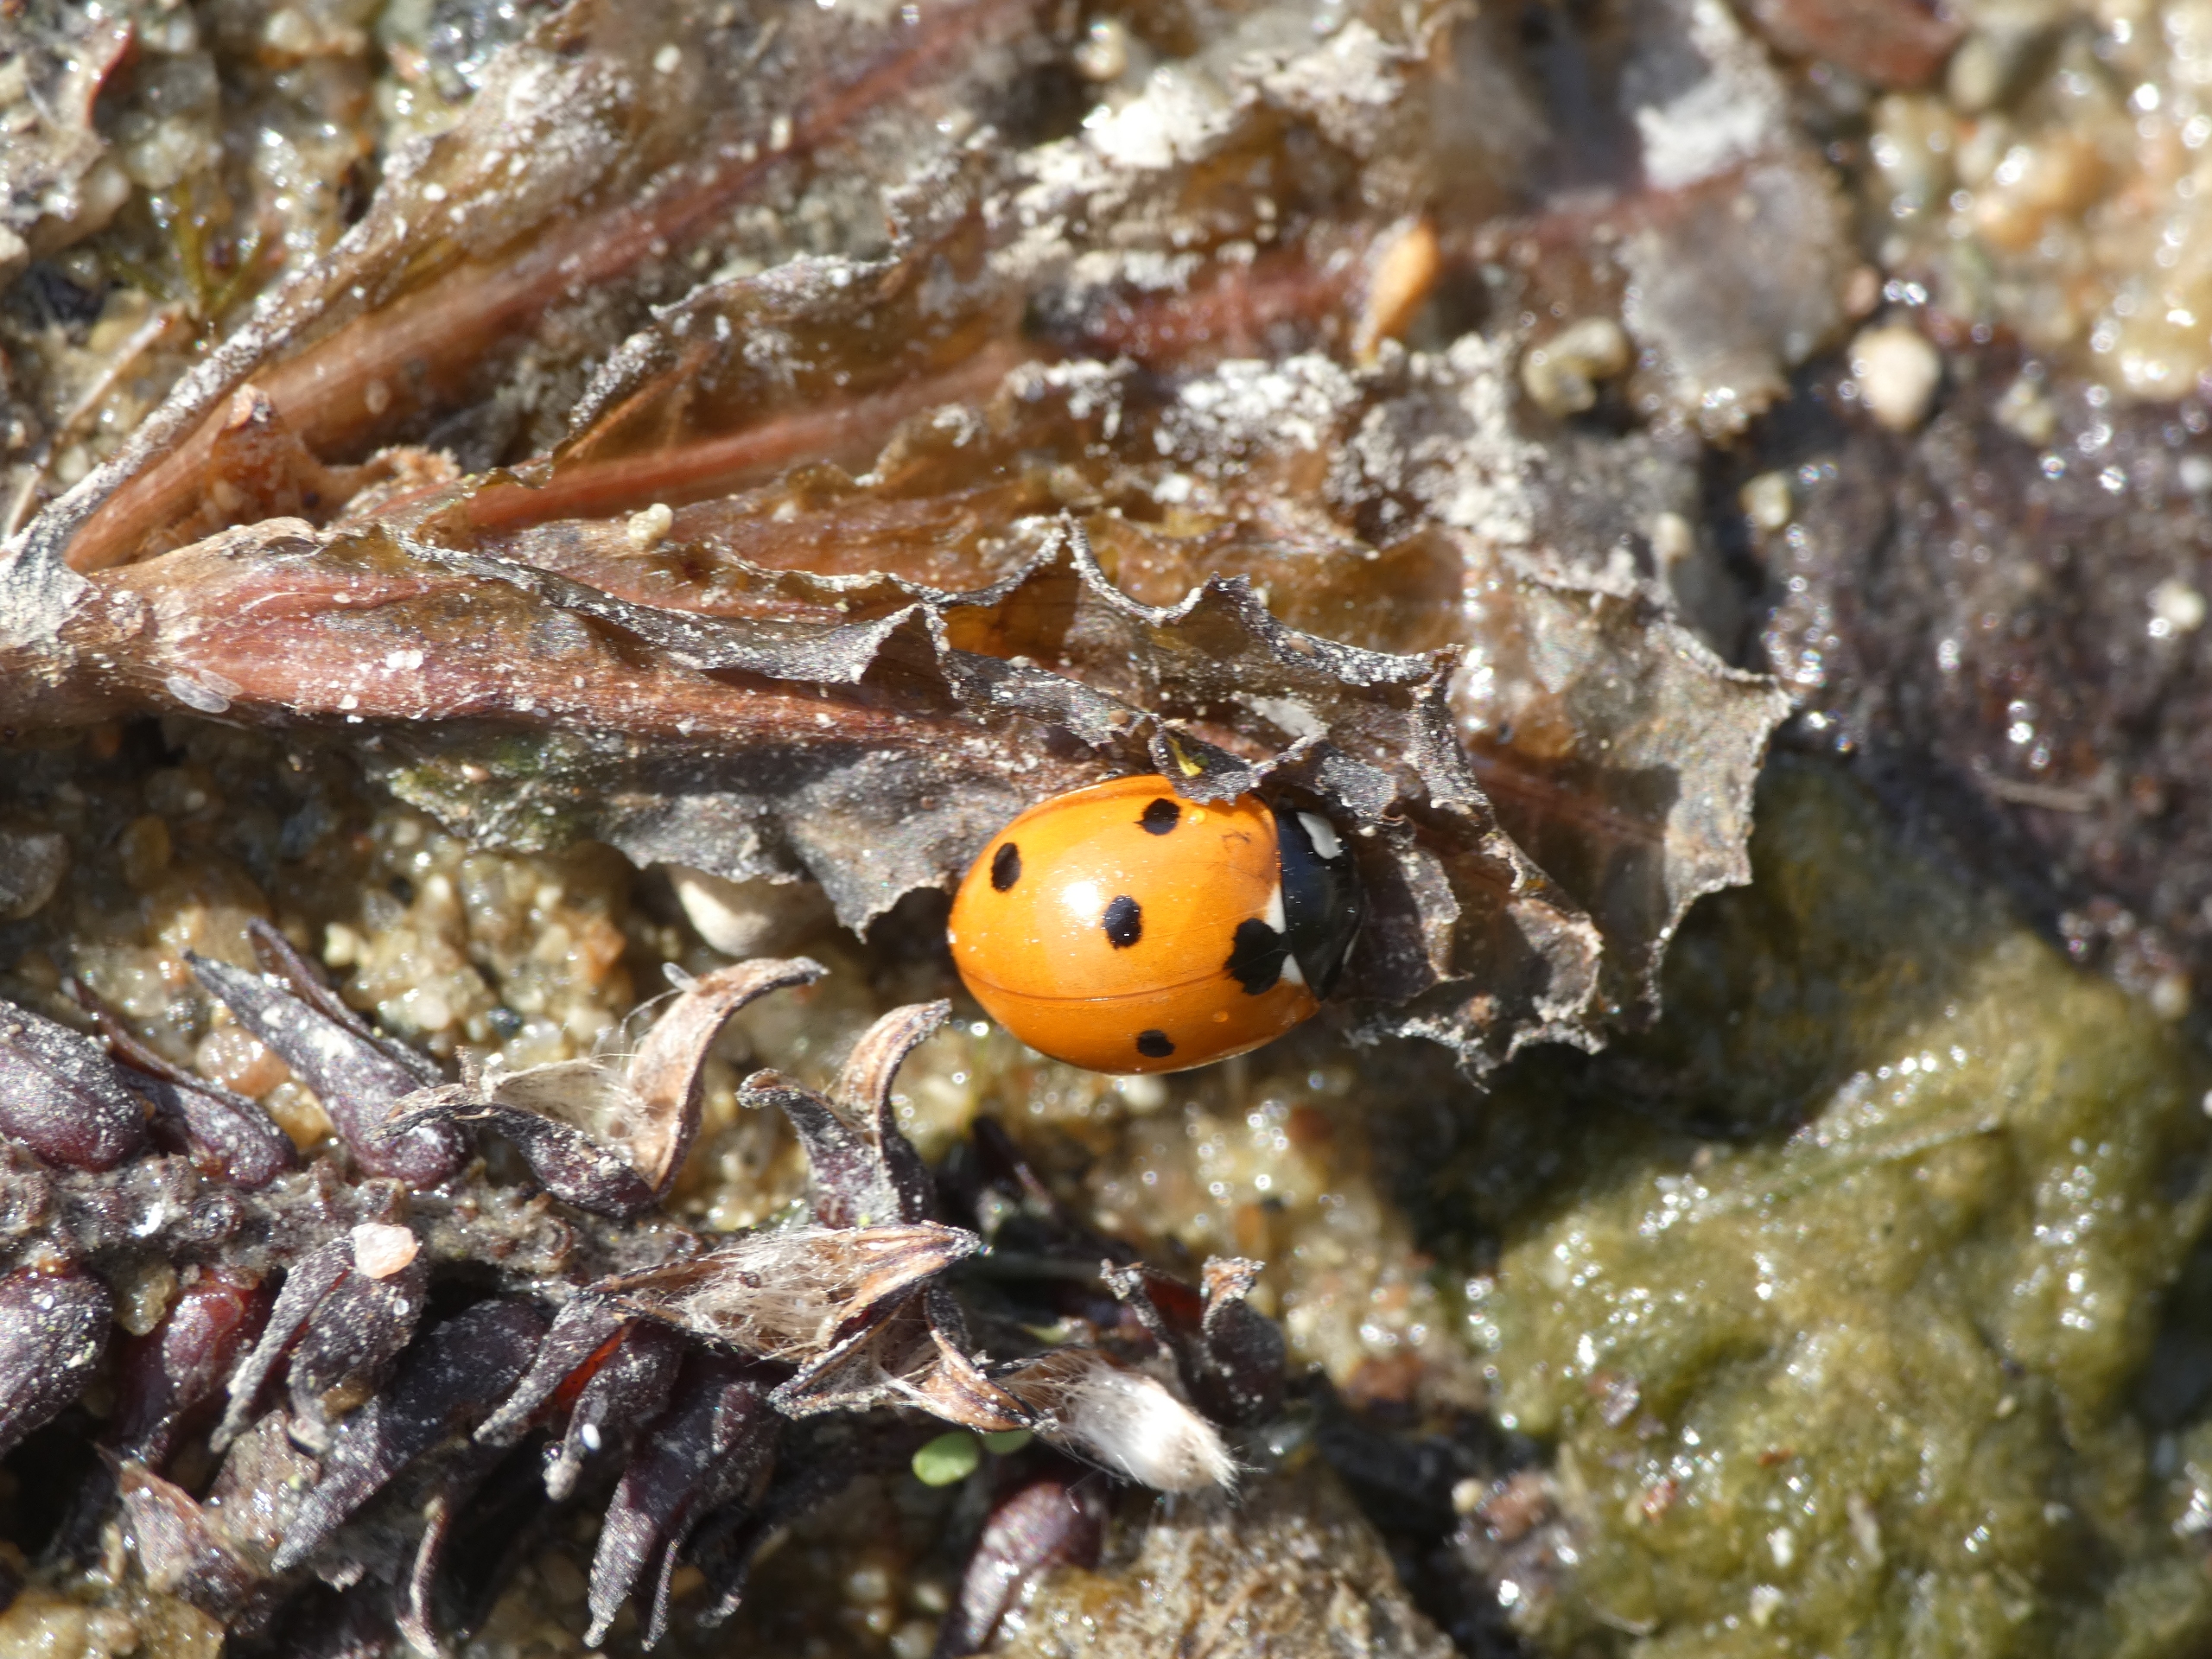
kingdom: Animalia
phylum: Arthropoda
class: Insecta
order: Coleoptera
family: Coccinellidae
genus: Coccinella
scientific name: Coccinella septempunctata
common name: Syvplettet mariehøne
